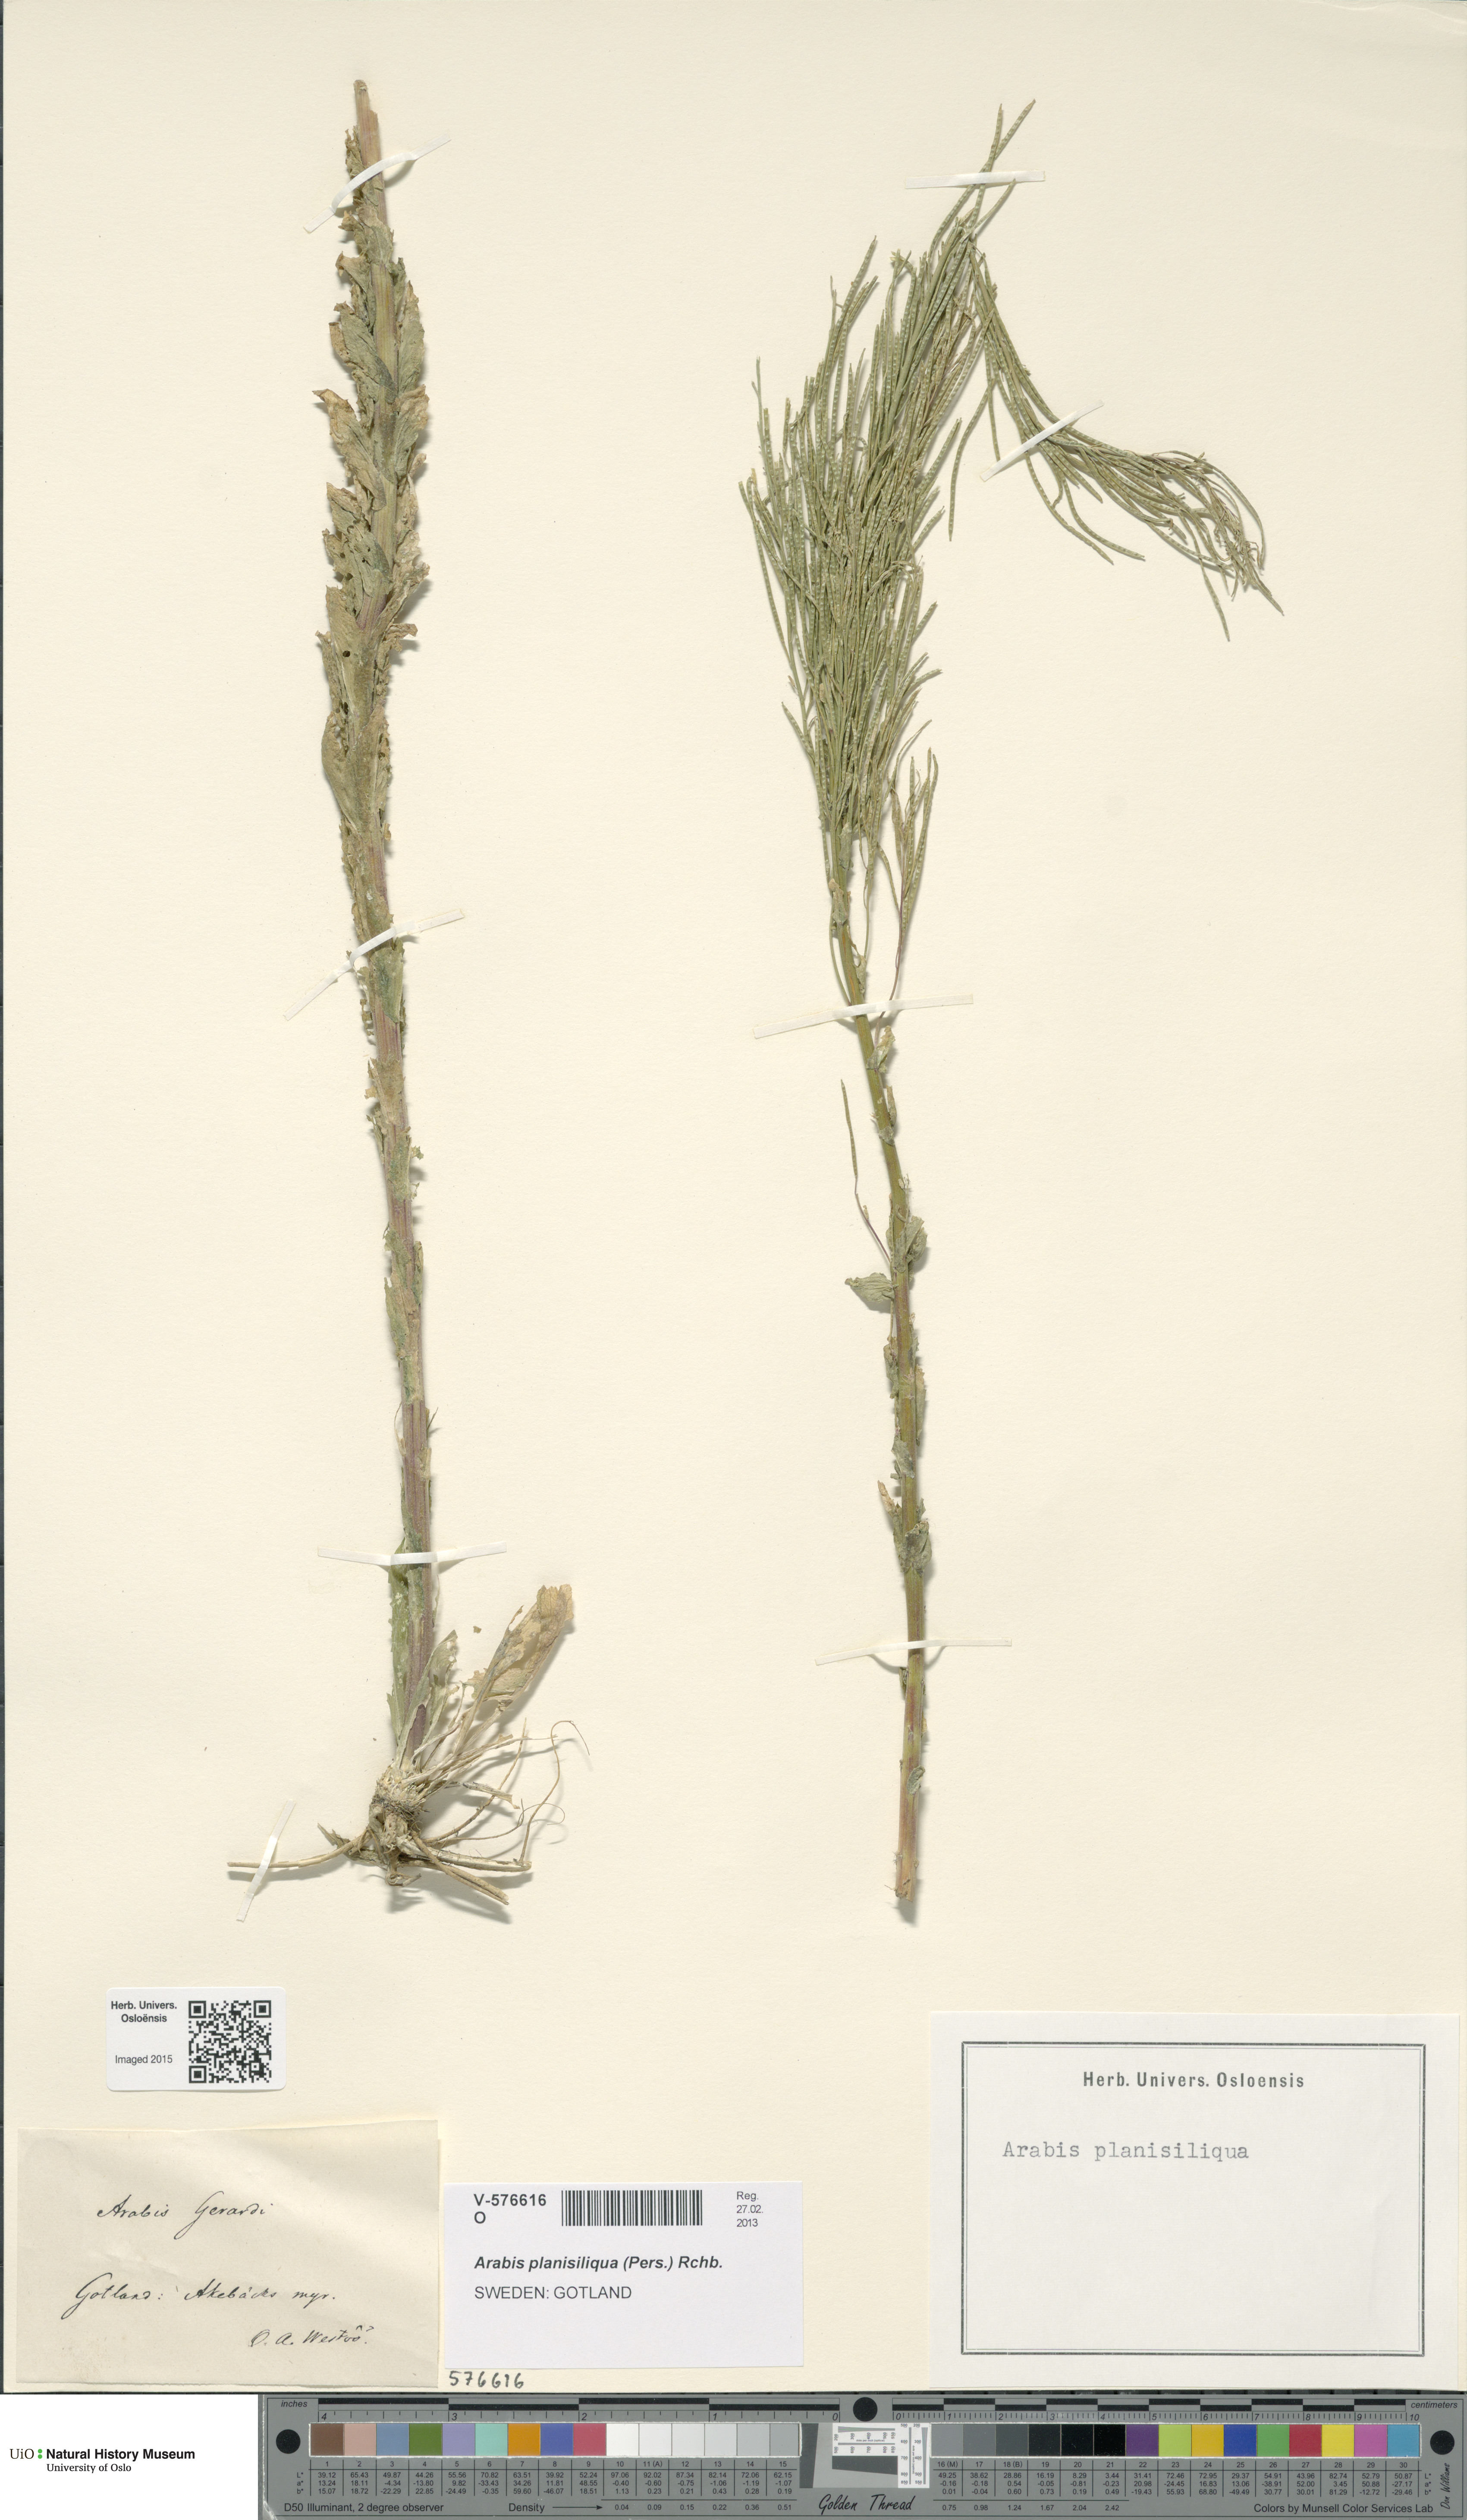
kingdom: Plantae
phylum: Tracheophyta
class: Magnoliopsida
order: Brassicales
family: Brassicaceae
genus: Arabis
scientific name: Arabis planisiliqua
